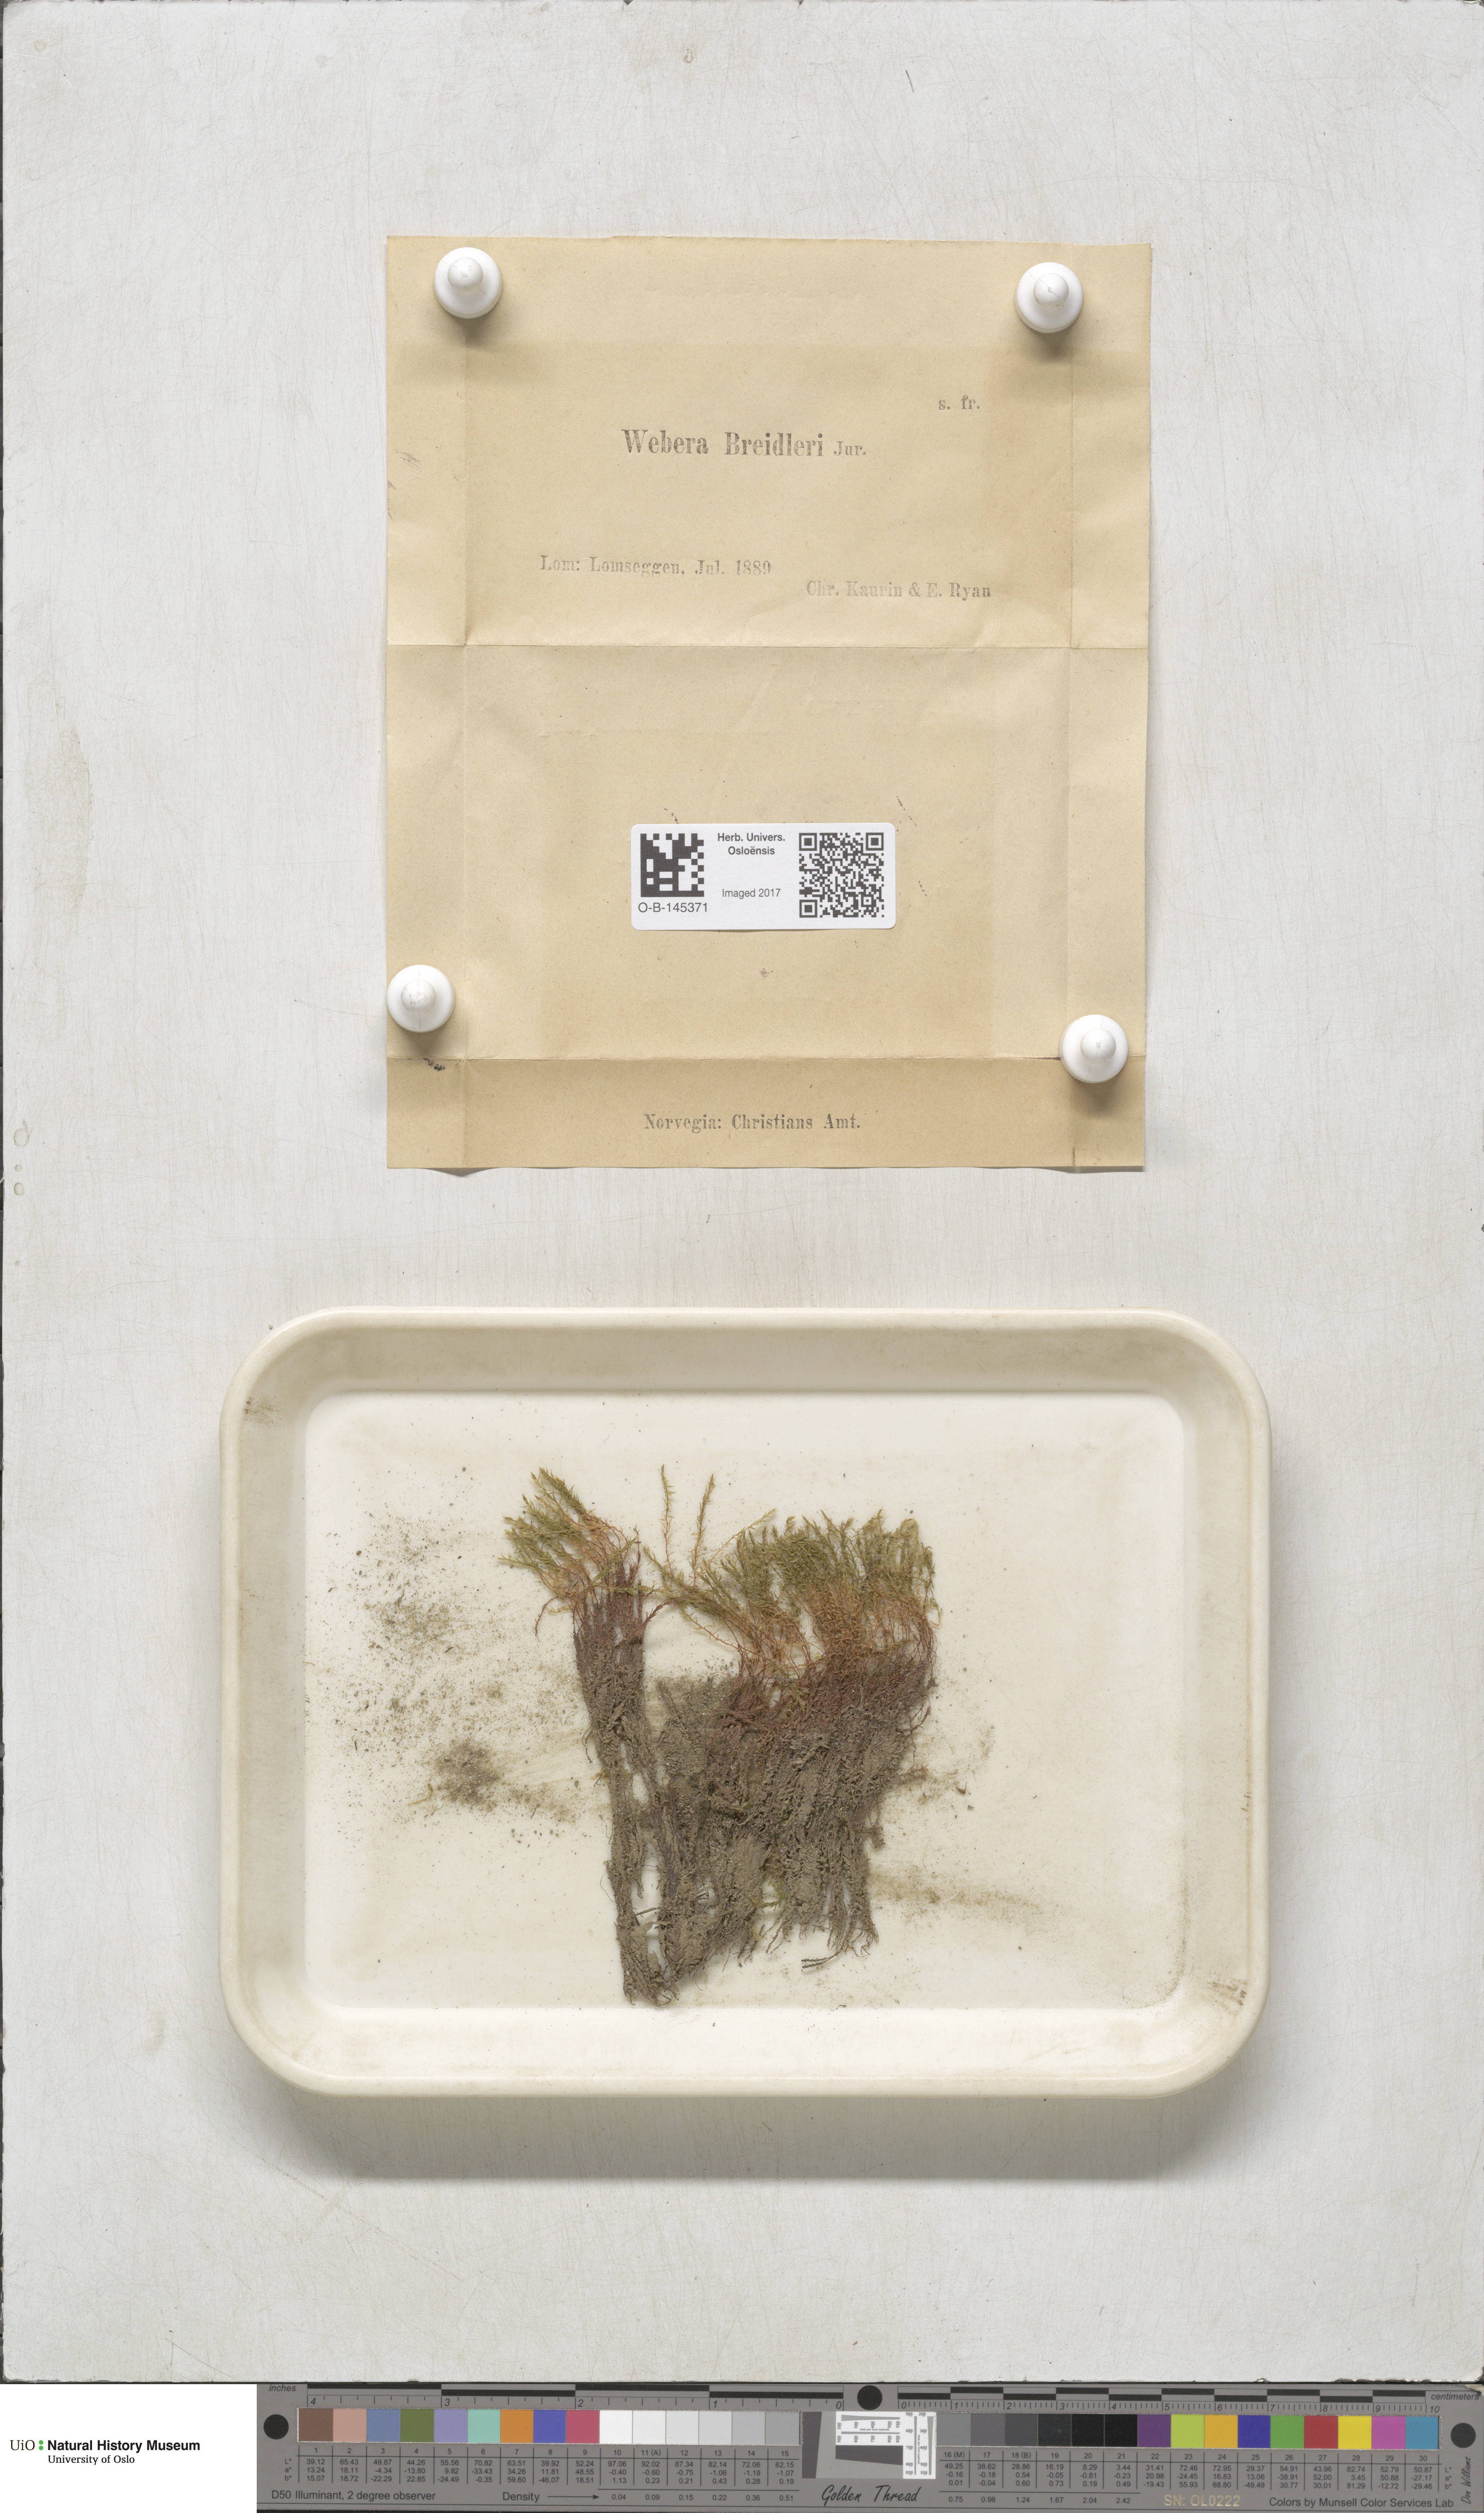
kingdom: Plantae
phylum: Bryophyta
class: Bryopsida
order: Bryales
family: Mniaceae
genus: Pohlia
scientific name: Pohlia ludwigii
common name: Ludwig's thread-moss
